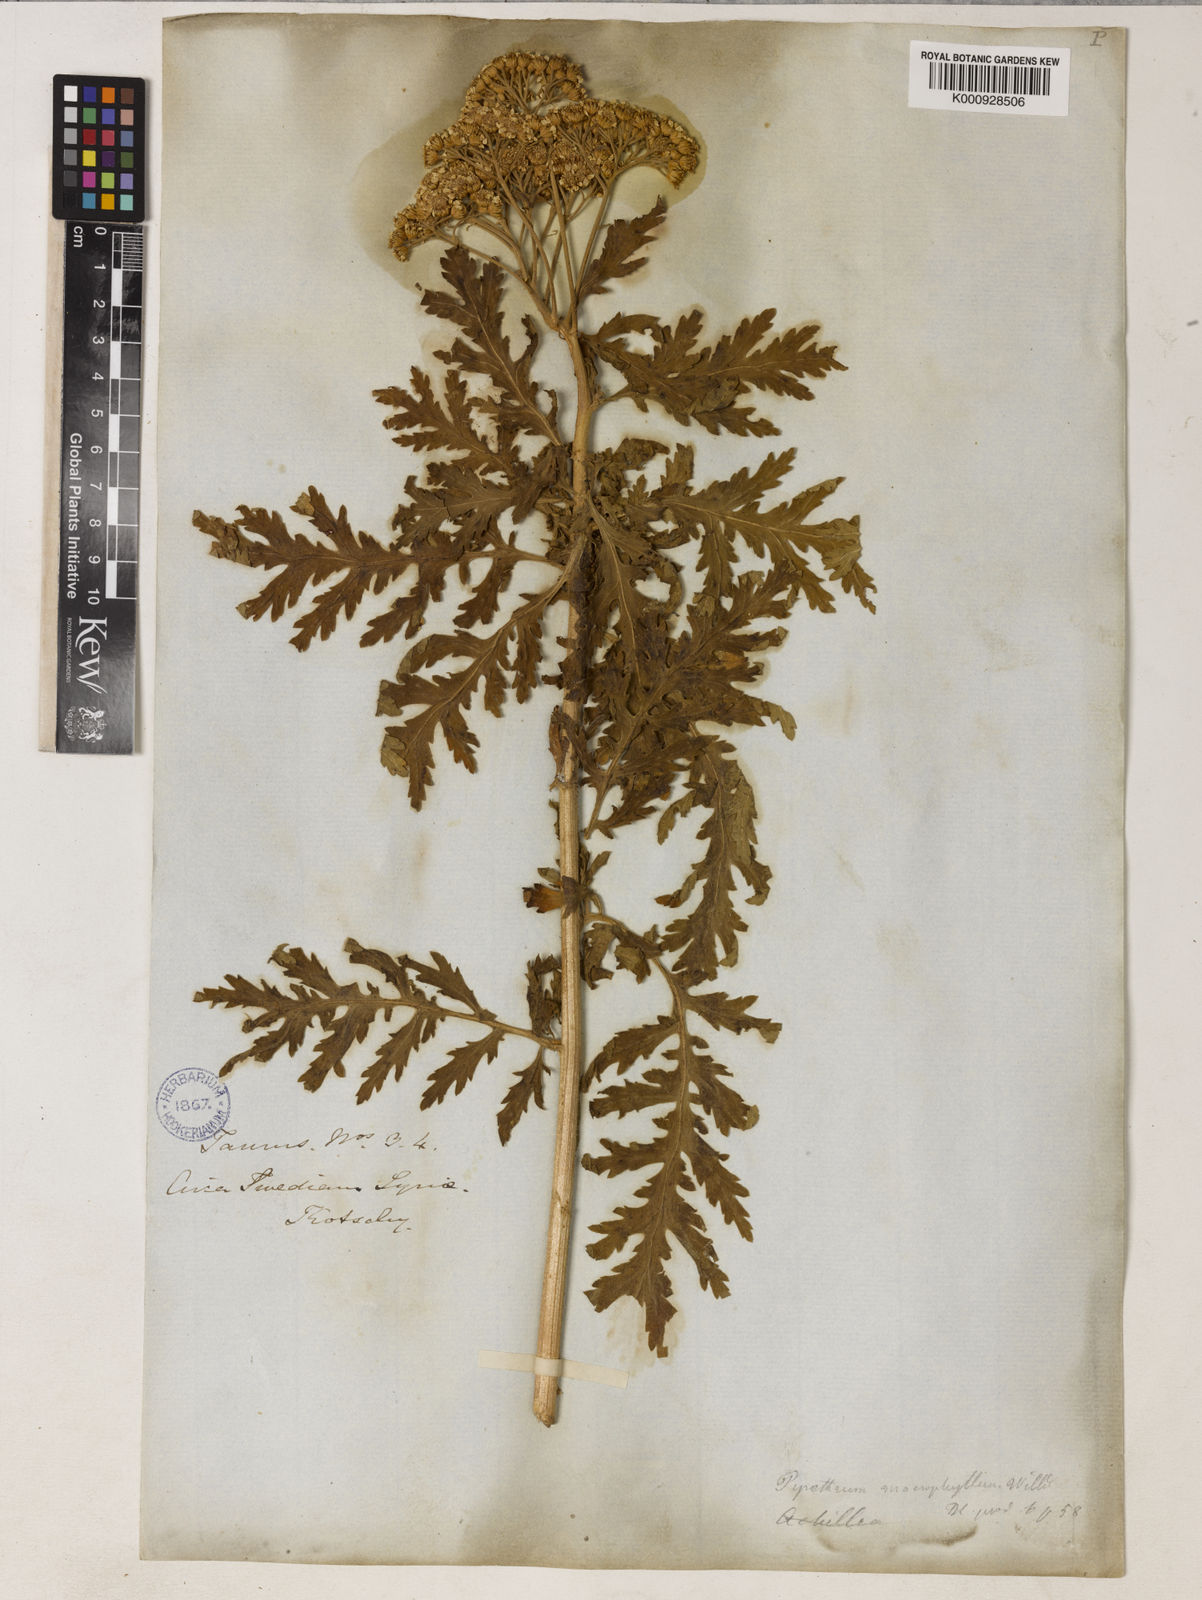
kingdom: Plantae
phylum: Tracheophyta
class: Magnoliopsida
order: Asterales
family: Asteraceae
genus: Tanacetum
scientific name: Tanacetum cilicicum
